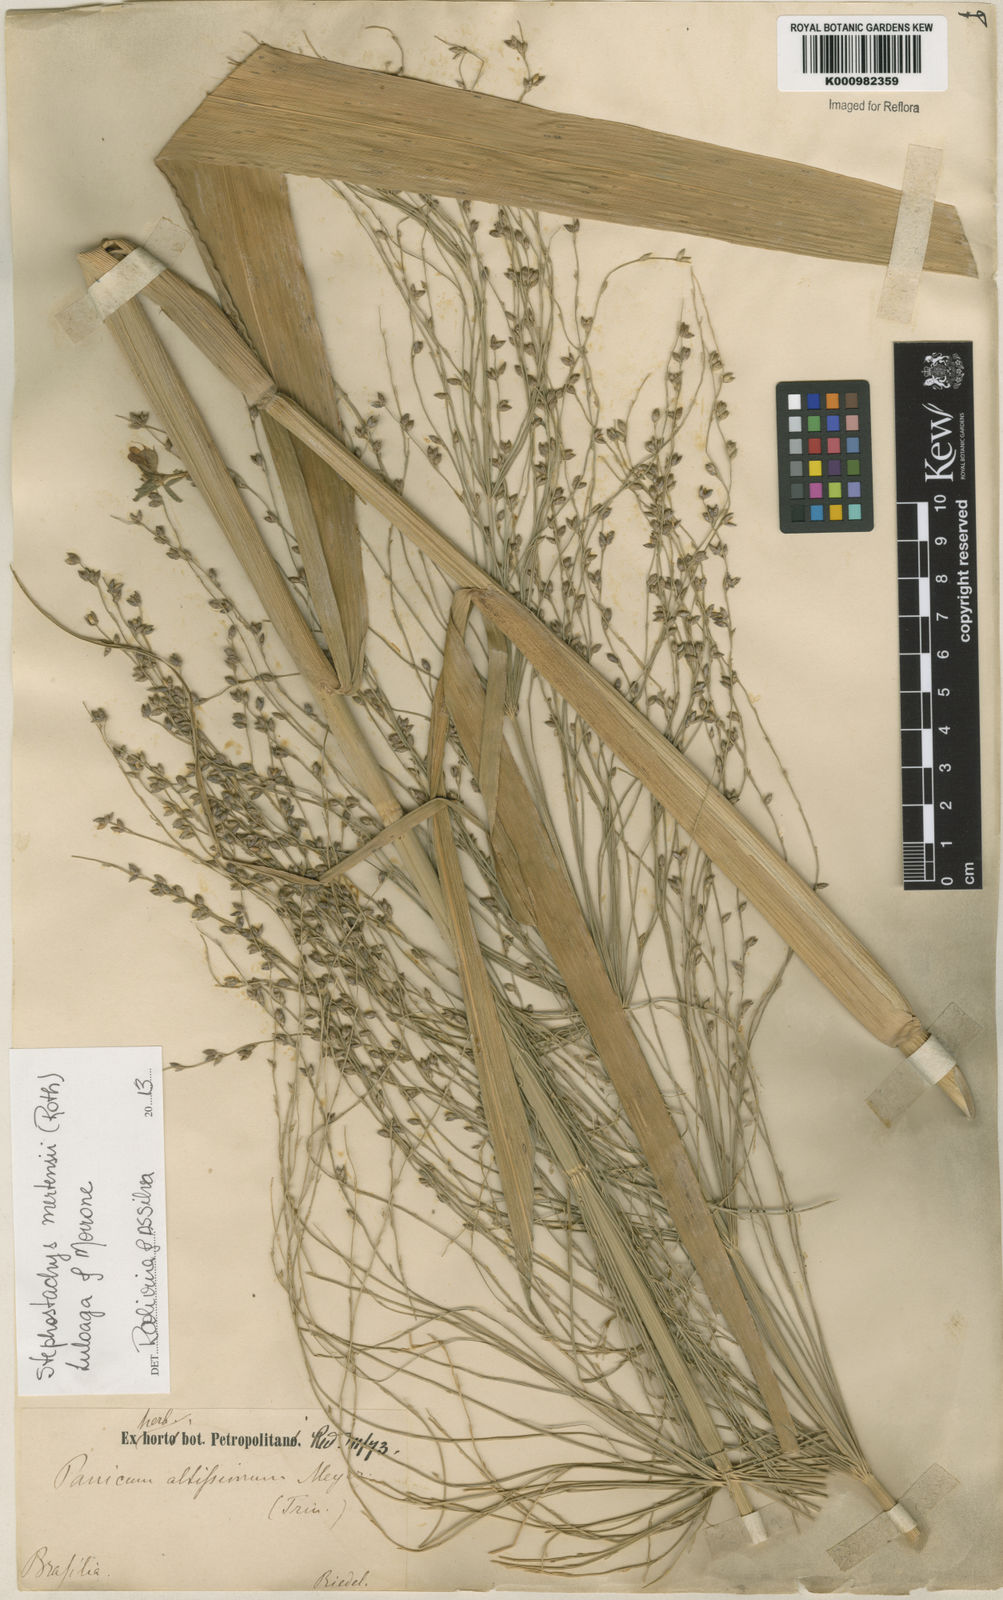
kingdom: Plantae
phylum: Tracheophyta
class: Liliopsida
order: Poales
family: Poaceae
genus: Stephostachys
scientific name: Stephostachys mertensii
